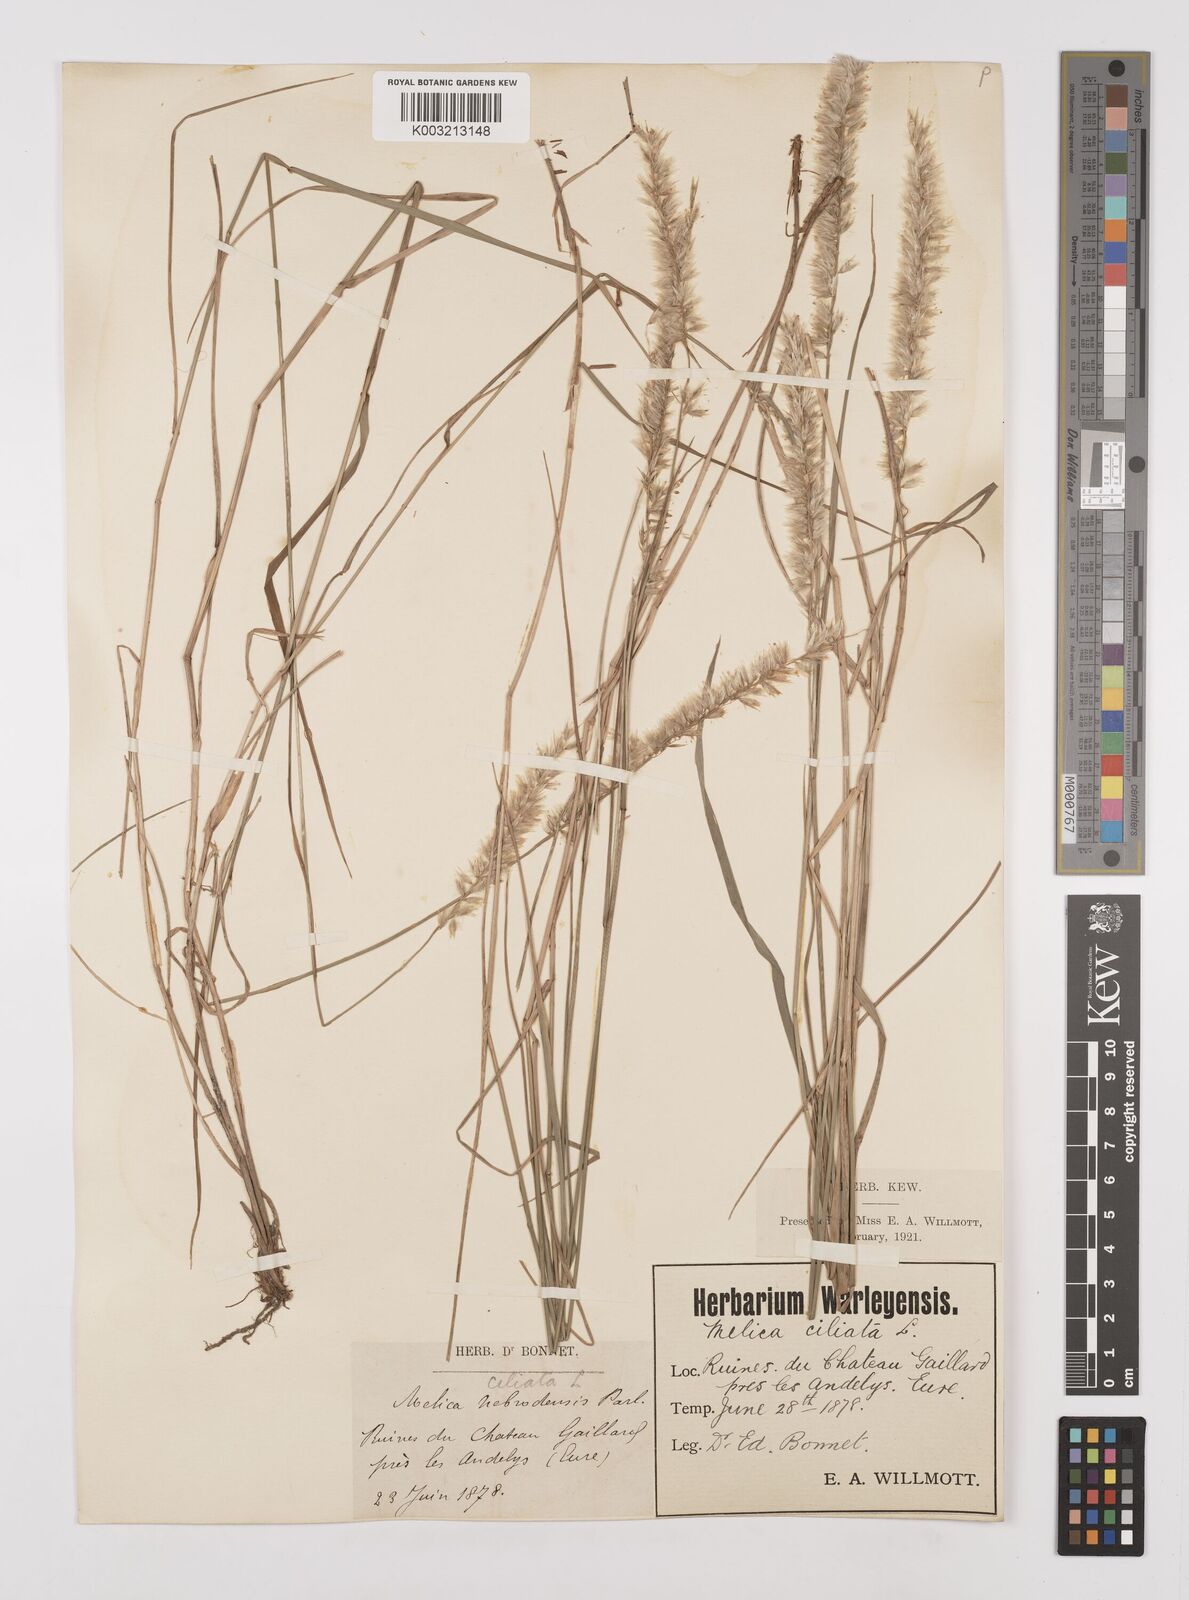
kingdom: Plantae
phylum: Tracheophyta
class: Liliopsida
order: Poales
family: Poaceae
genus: Melica
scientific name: Melica ciliata
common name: Hairy melicgrass
